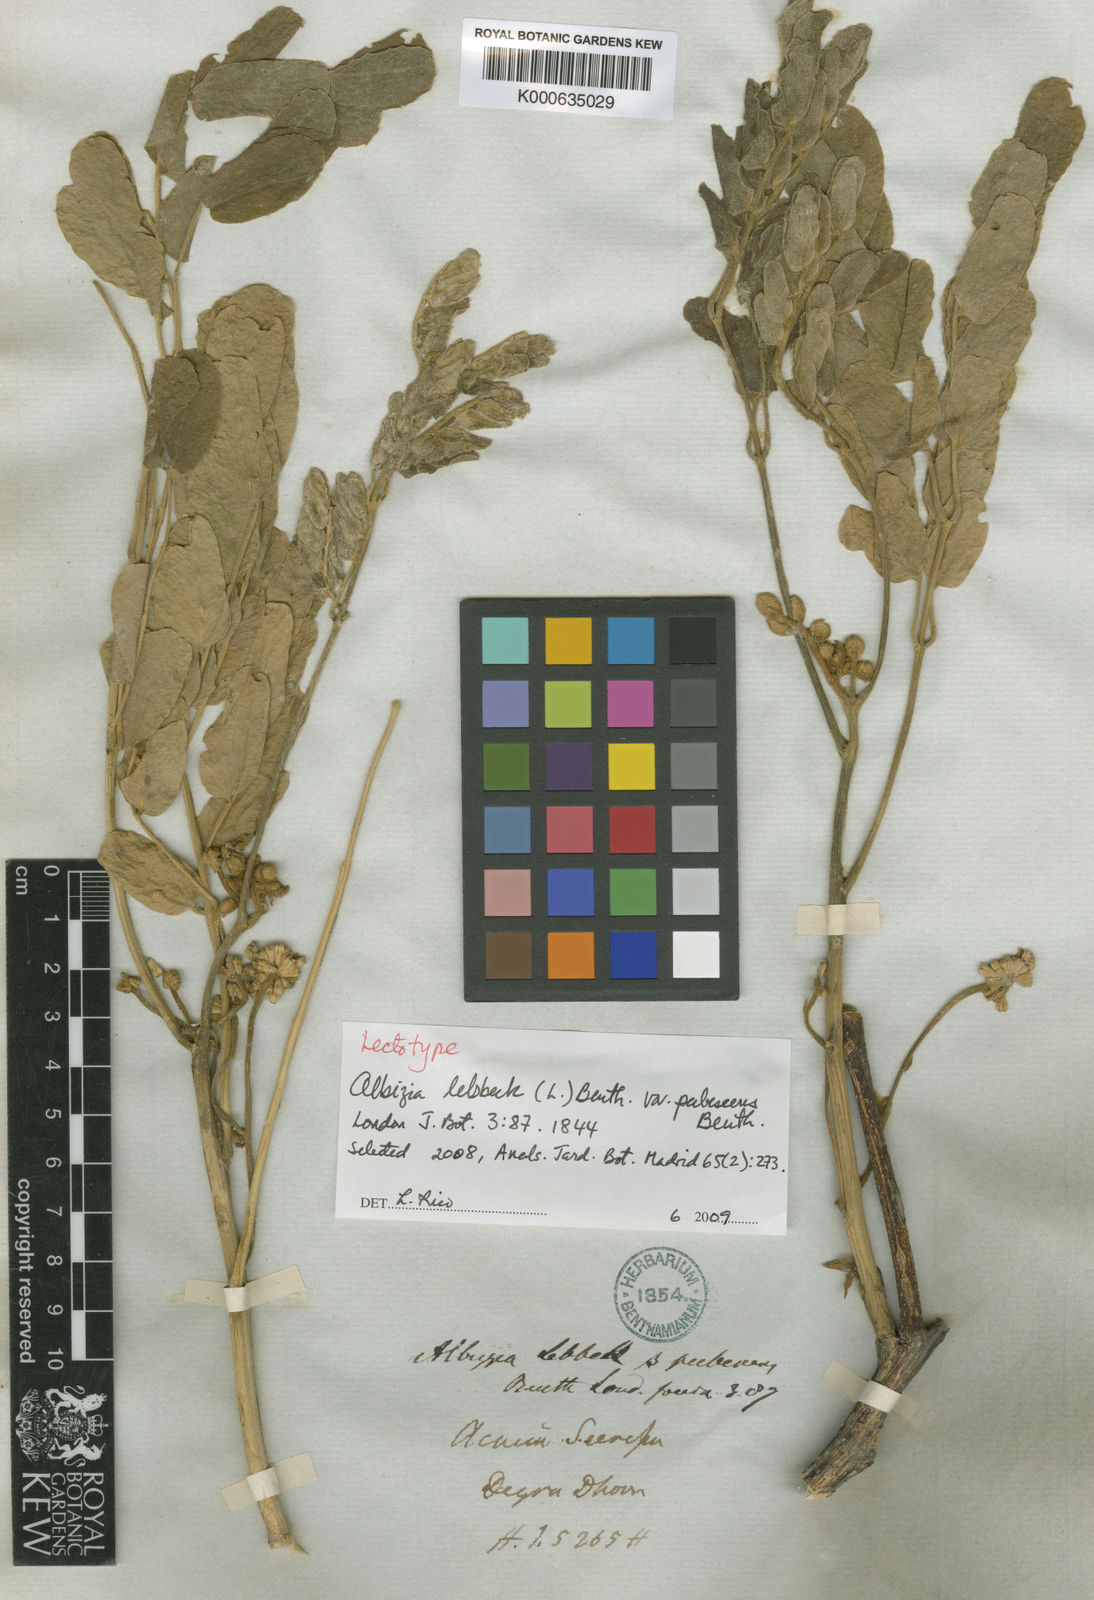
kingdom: Plantae
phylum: Tracheophyta
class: Magnoliopsida
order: Fabales
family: Fabaceae
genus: Albizia
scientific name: Albizia
